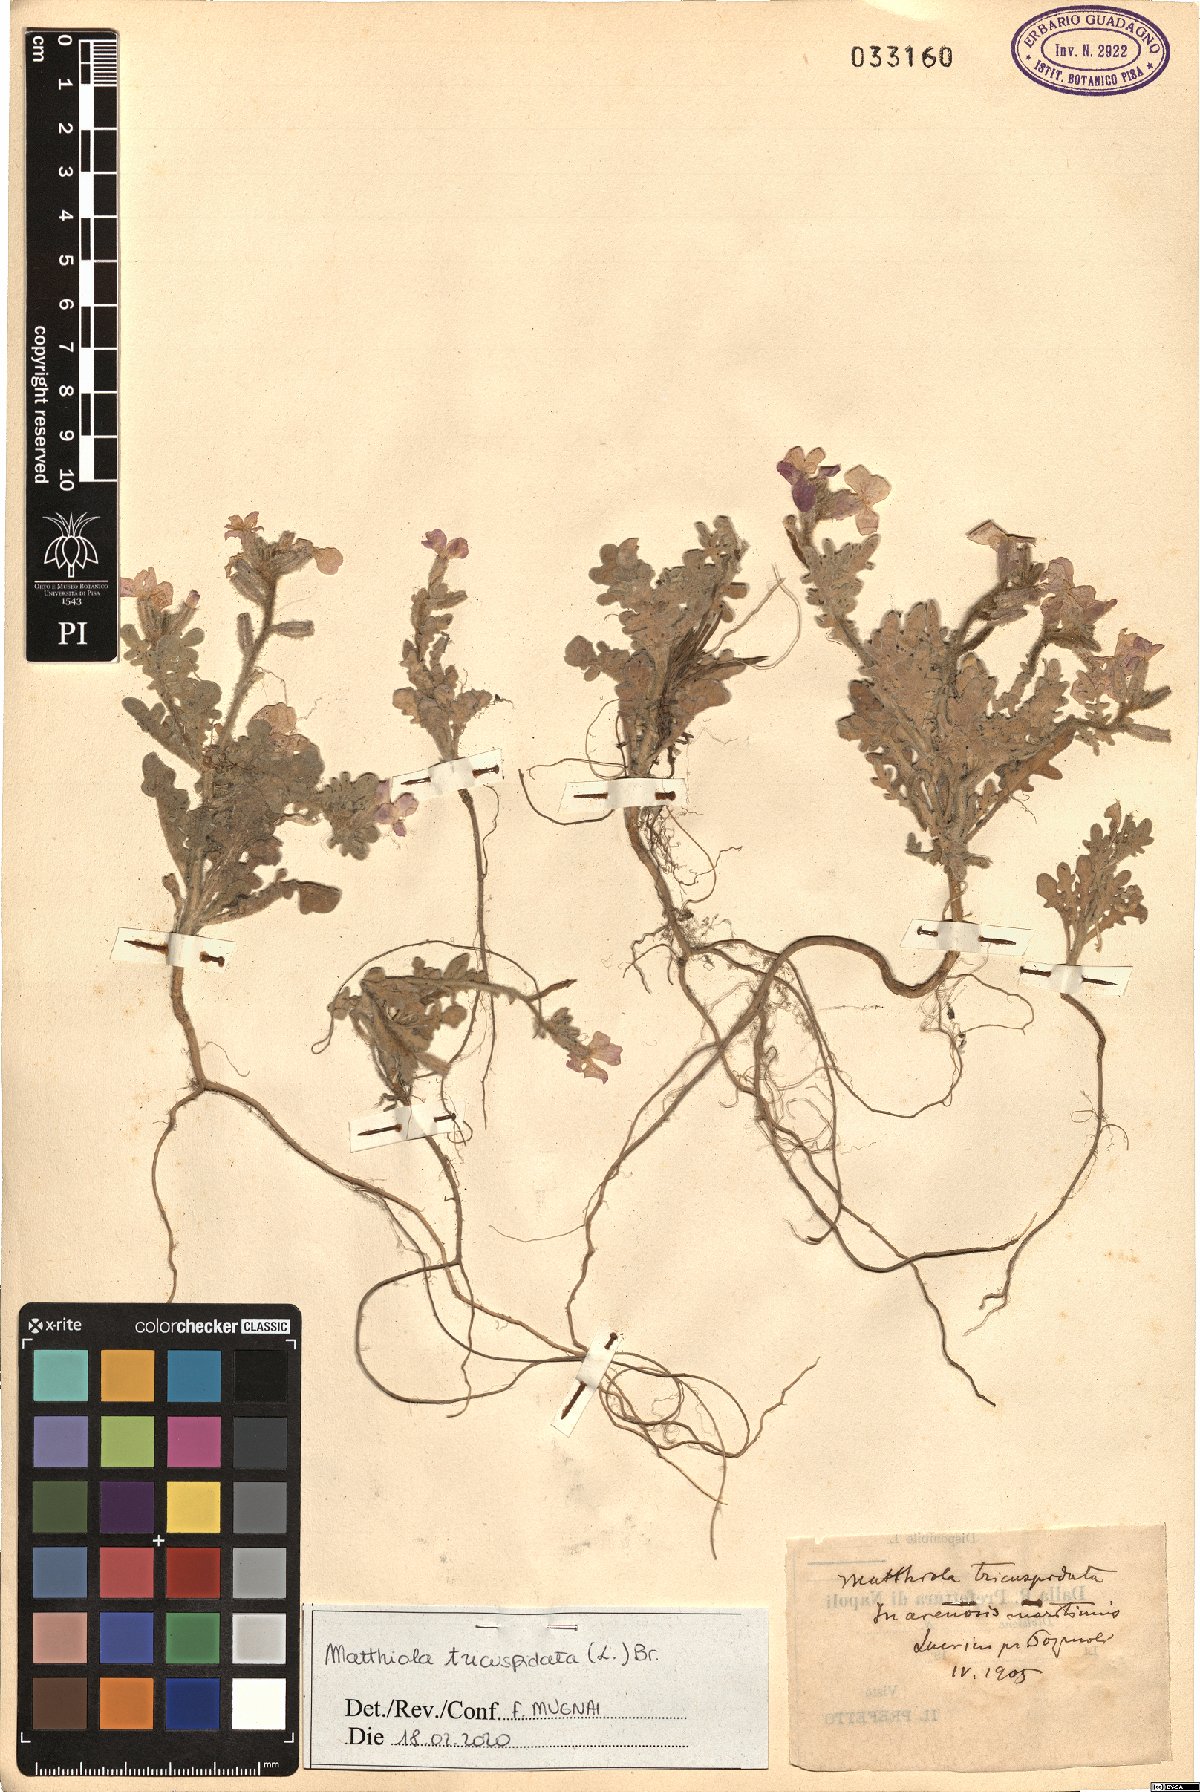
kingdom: Plantae
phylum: Tracheophyta
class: Magnoliopsida
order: Brassicales
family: Brassicaceae
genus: Matthiola
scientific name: Matthiola tricuspidata
